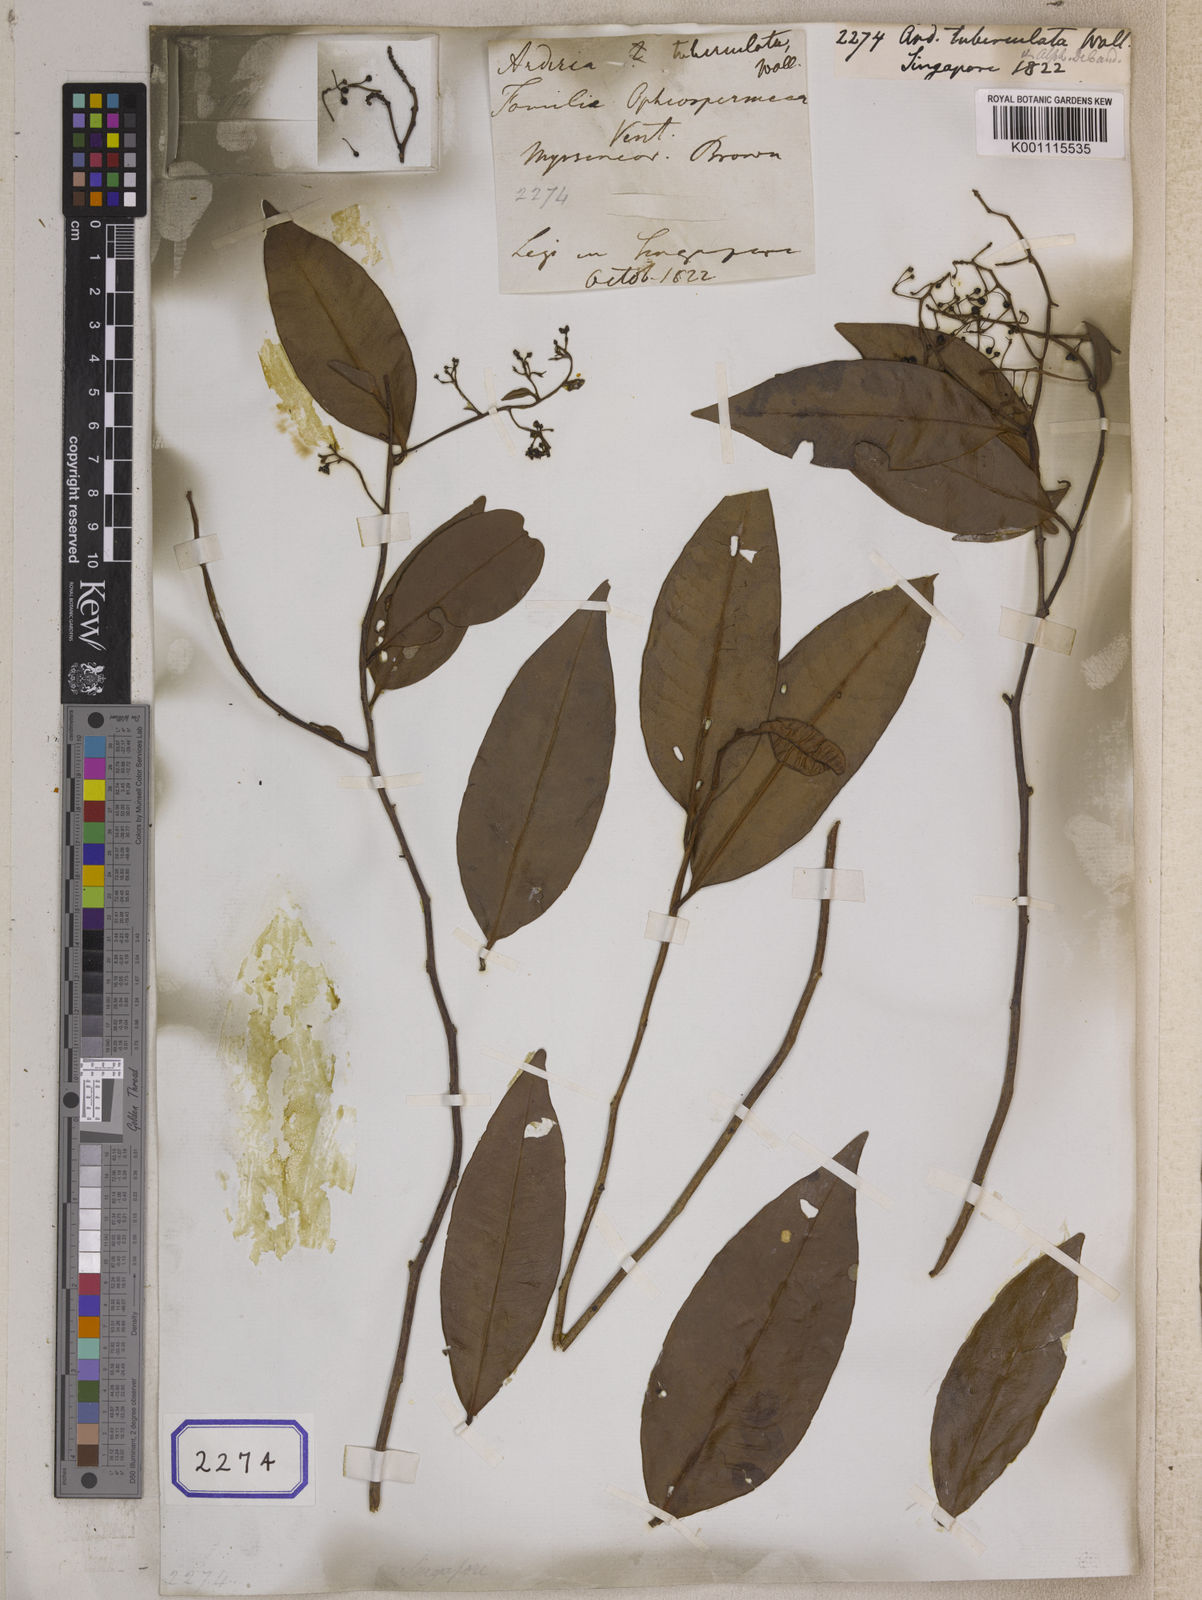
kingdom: Plantae
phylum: Tracheophyta
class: Magnoliopsida
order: Ericales
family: Primulaceae
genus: Ardisia
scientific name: Ardisia
